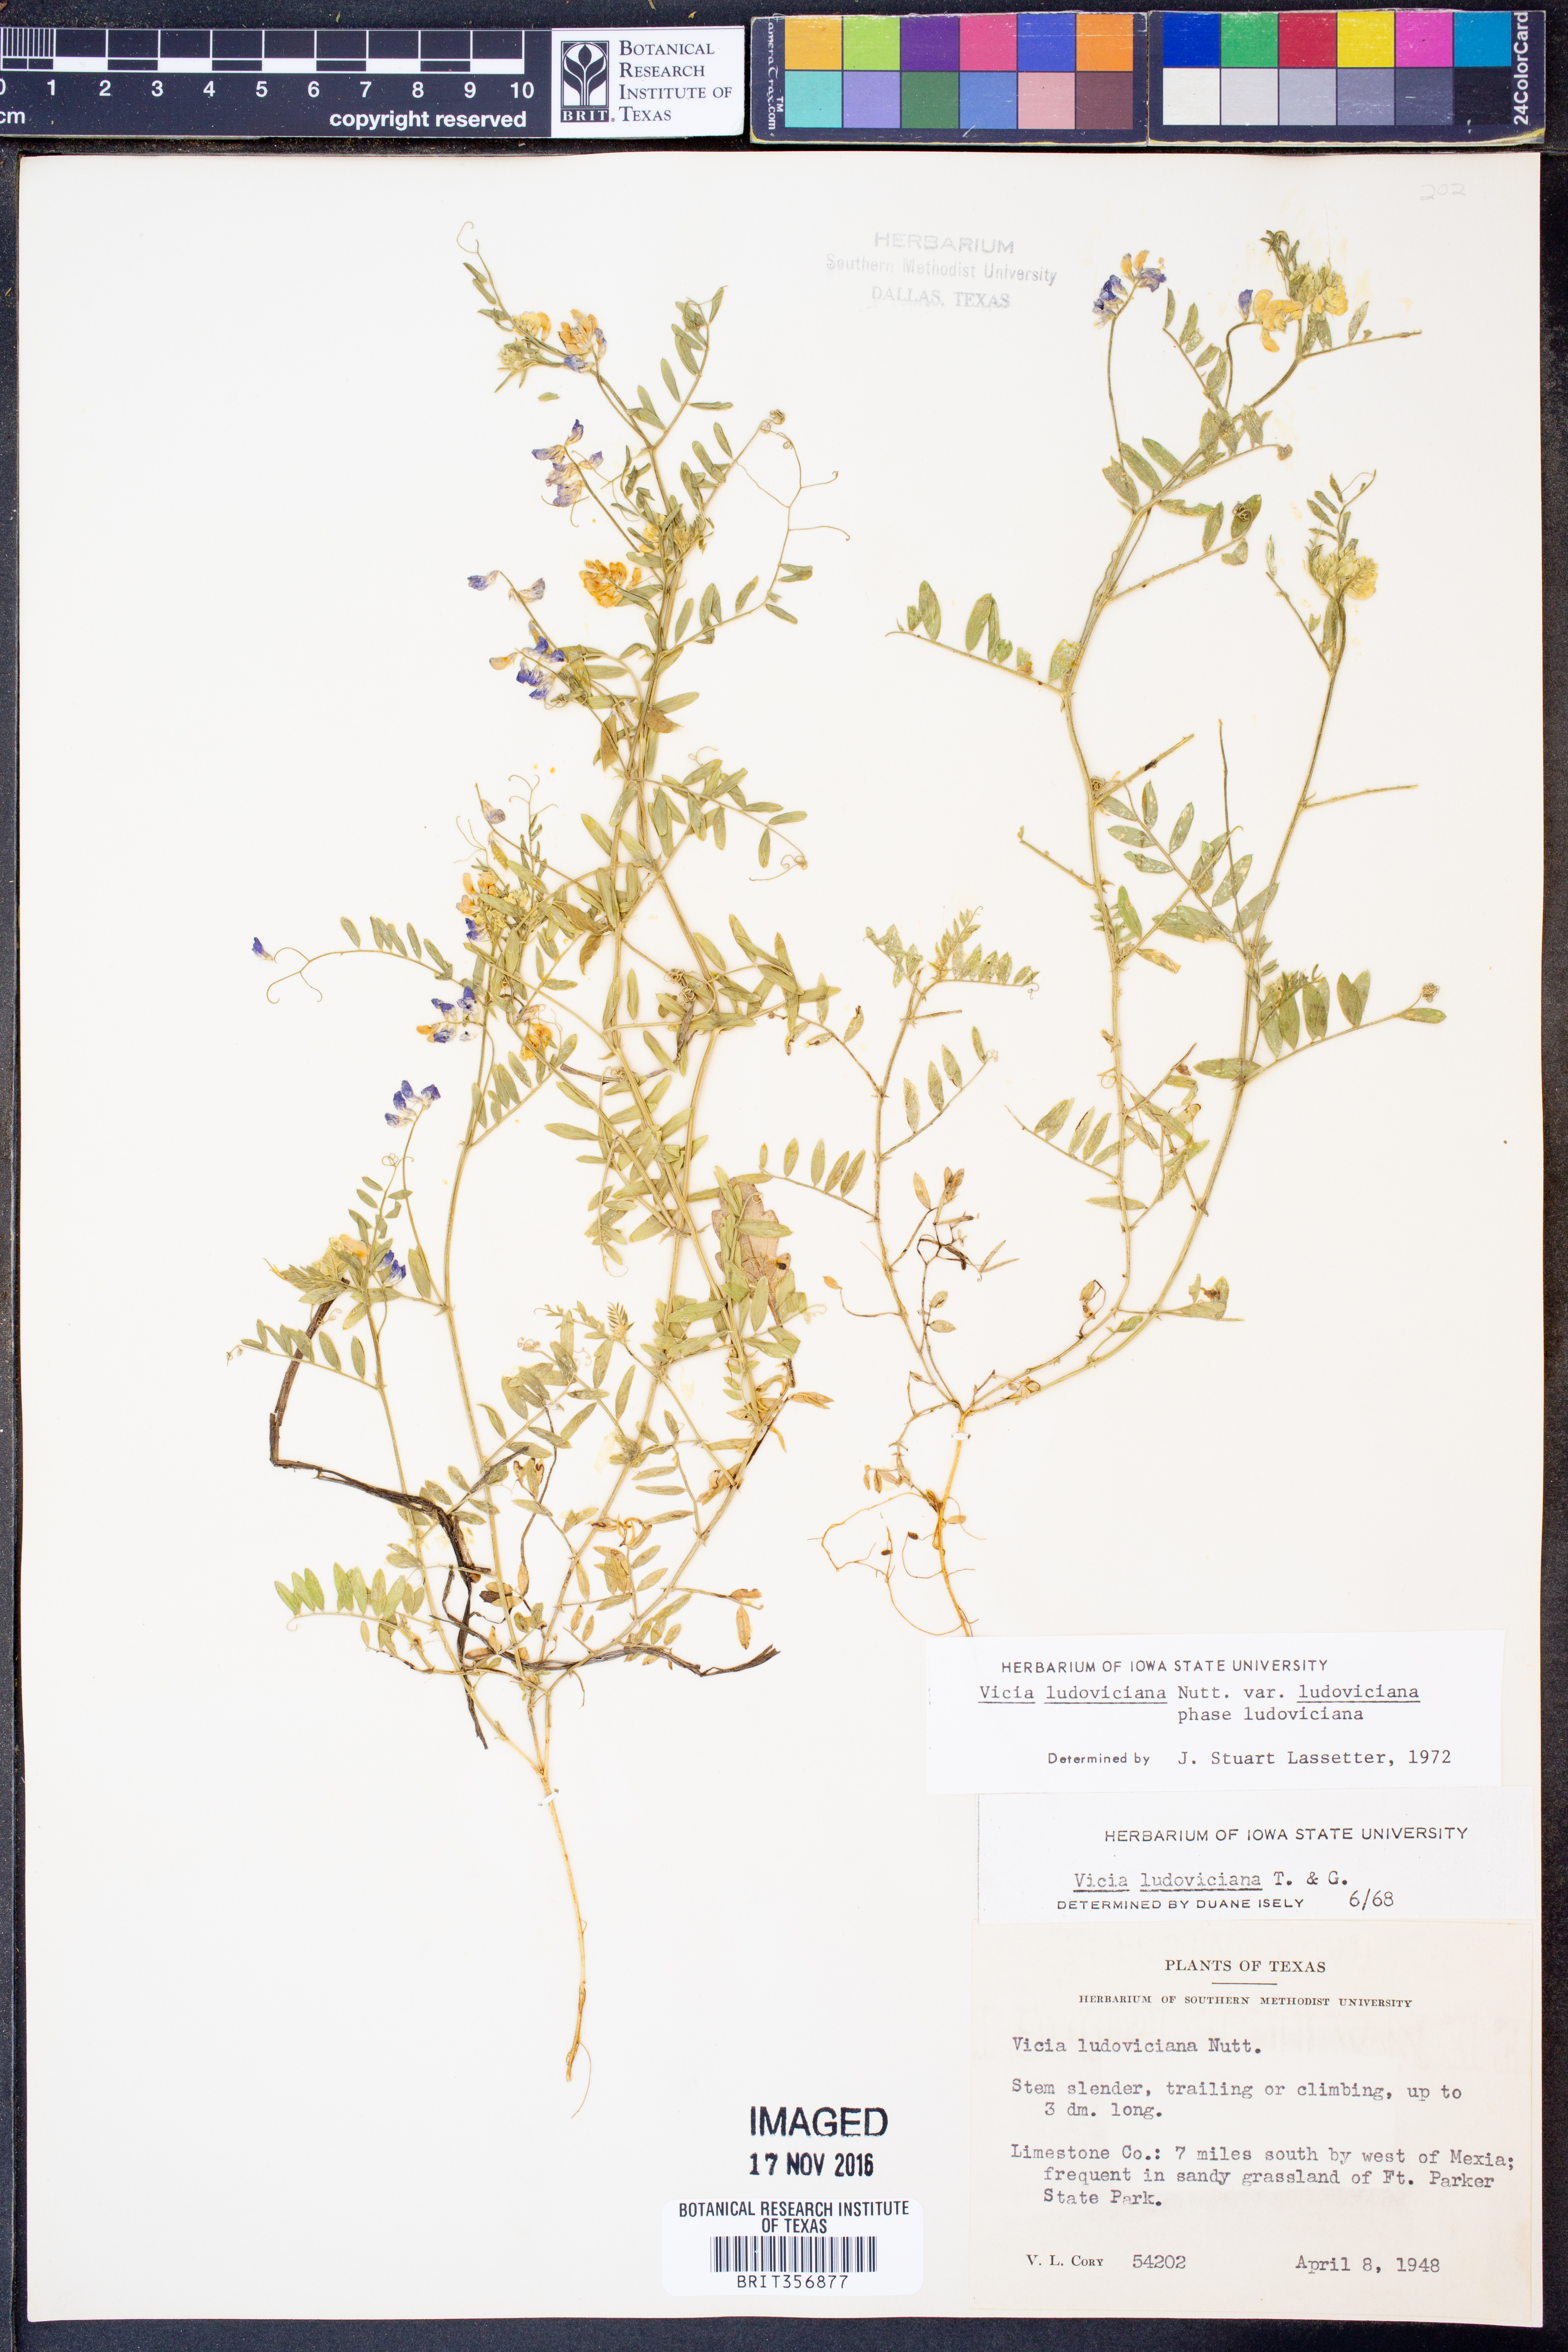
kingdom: Plantae
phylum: Tracheophyta
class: Magnoliopsida
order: Fabales
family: Fabaceae
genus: Vicia
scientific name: Vicia ludoviciana
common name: Louisiana vetch
